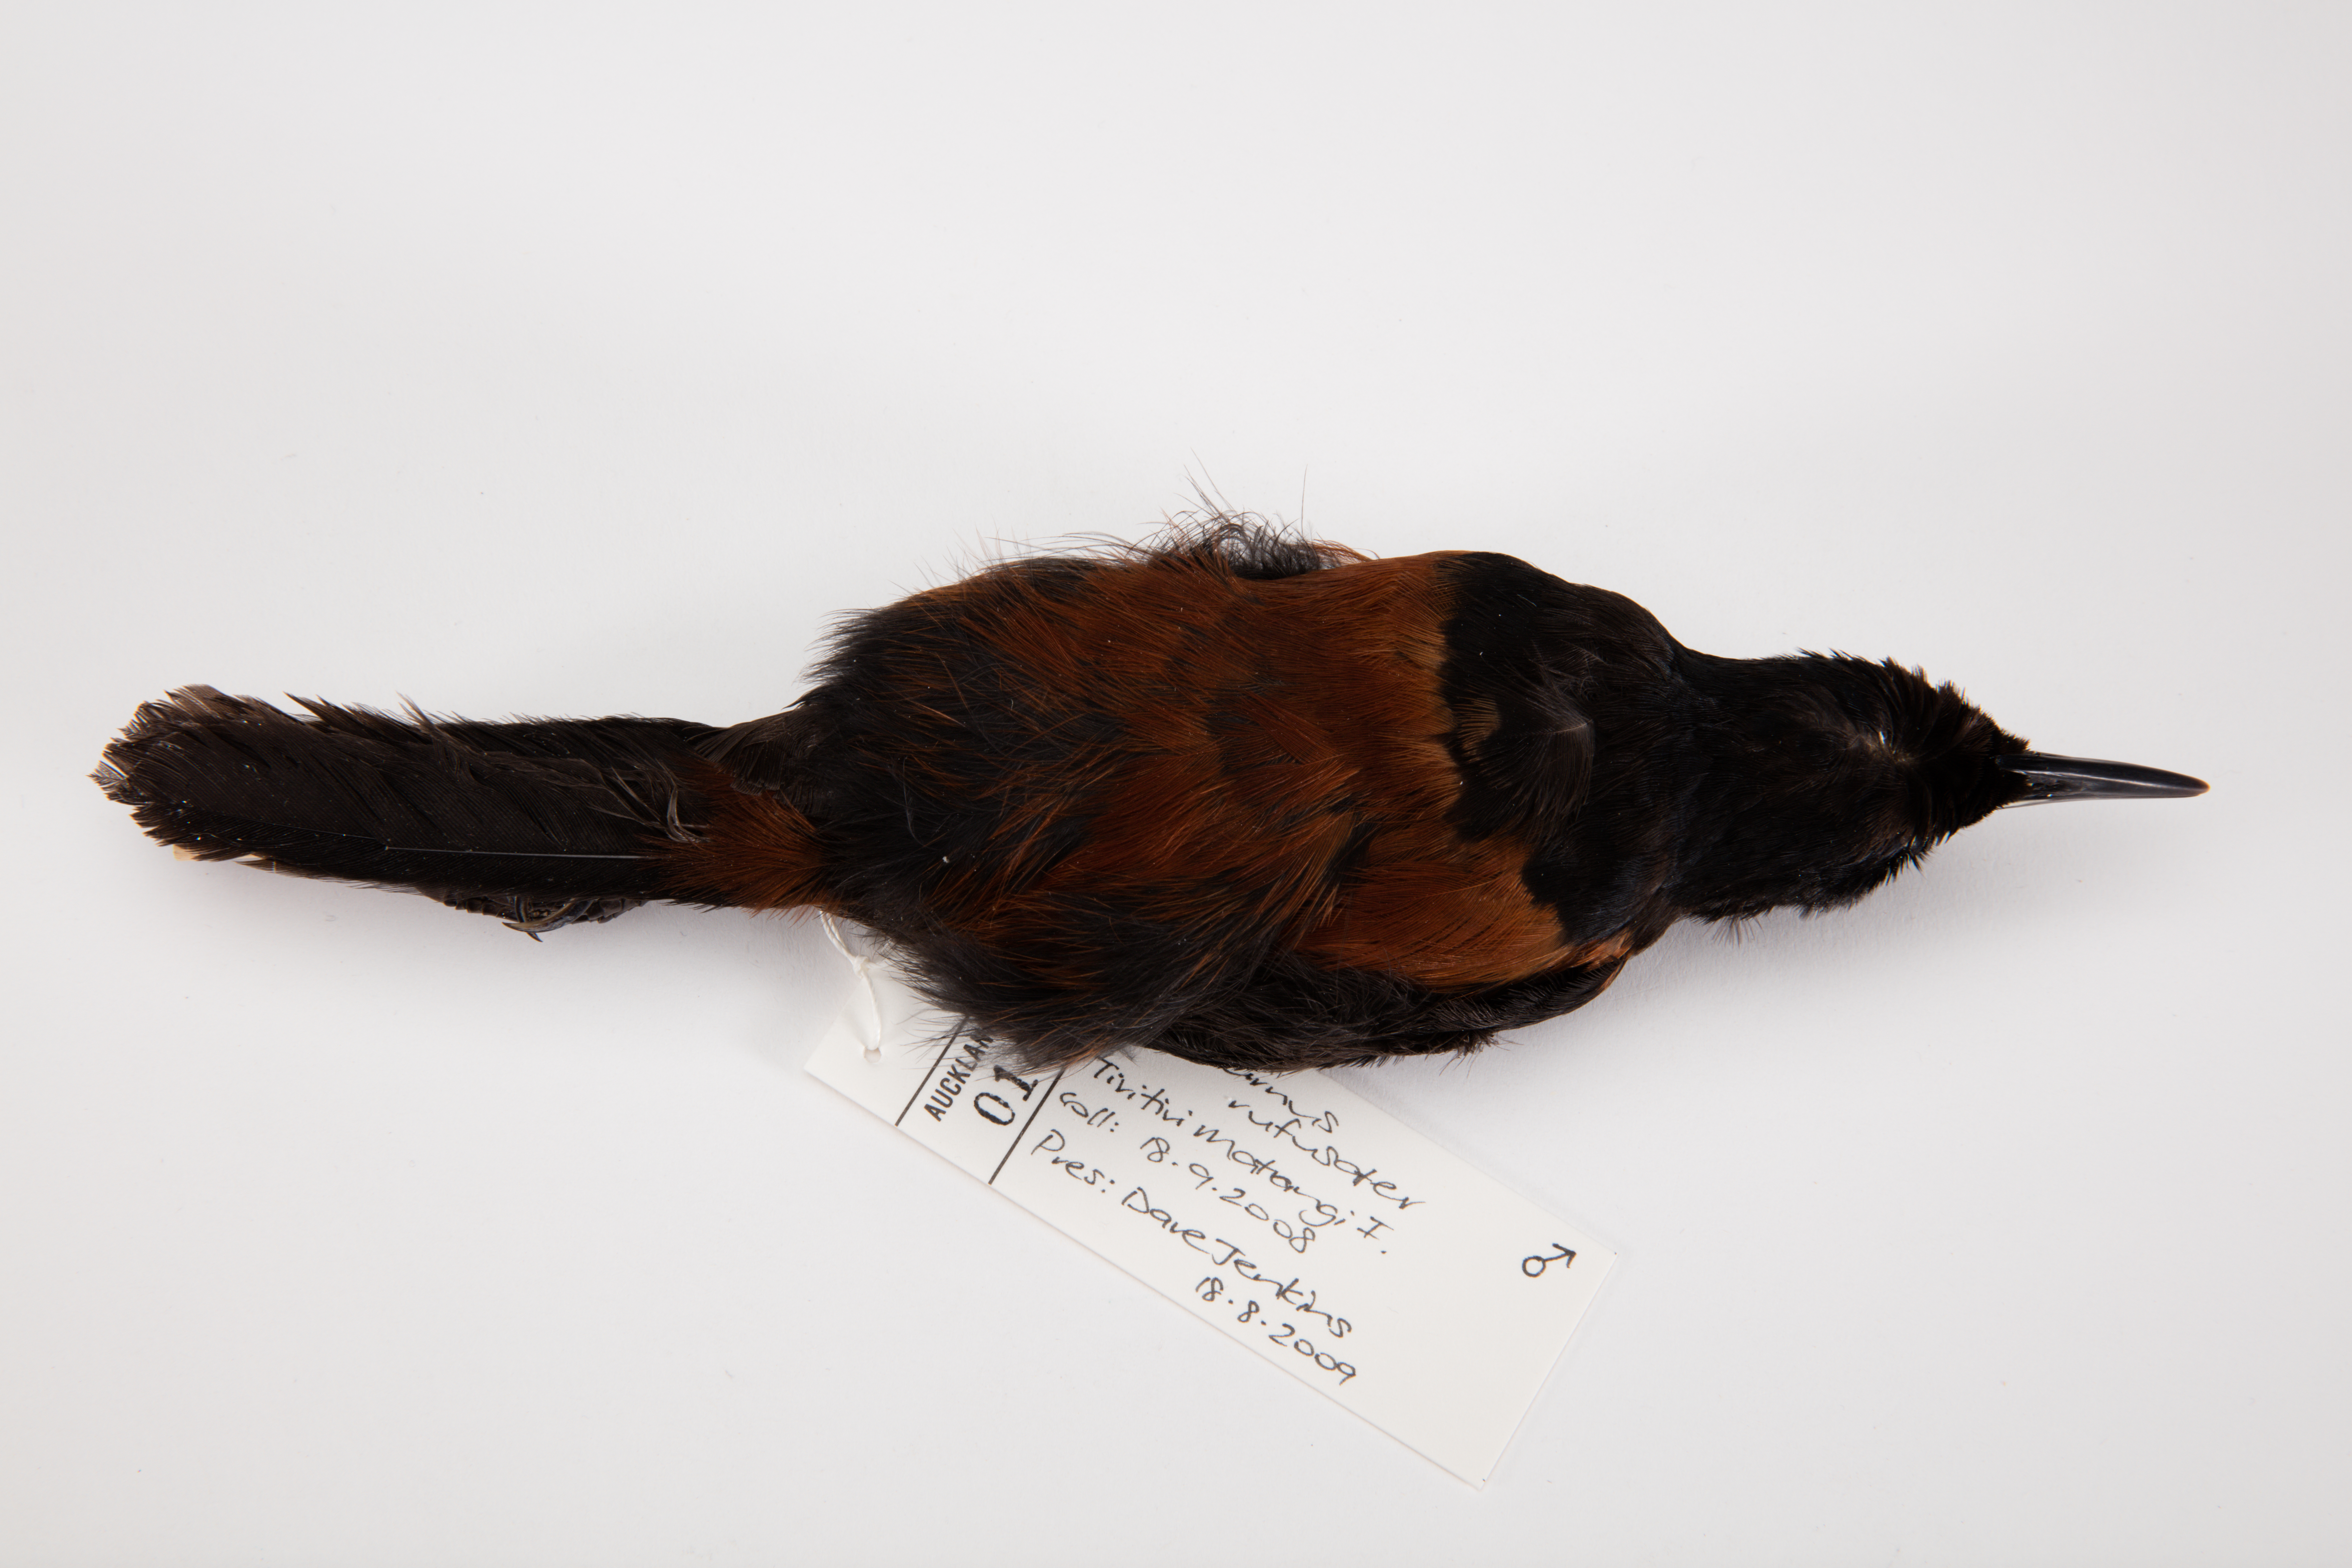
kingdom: Animalia
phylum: Chordata
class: Aves
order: Passeriformes
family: Callaeatidae
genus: Philesturnus
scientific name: Philesturnus carunculatus
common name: South island saddleback
